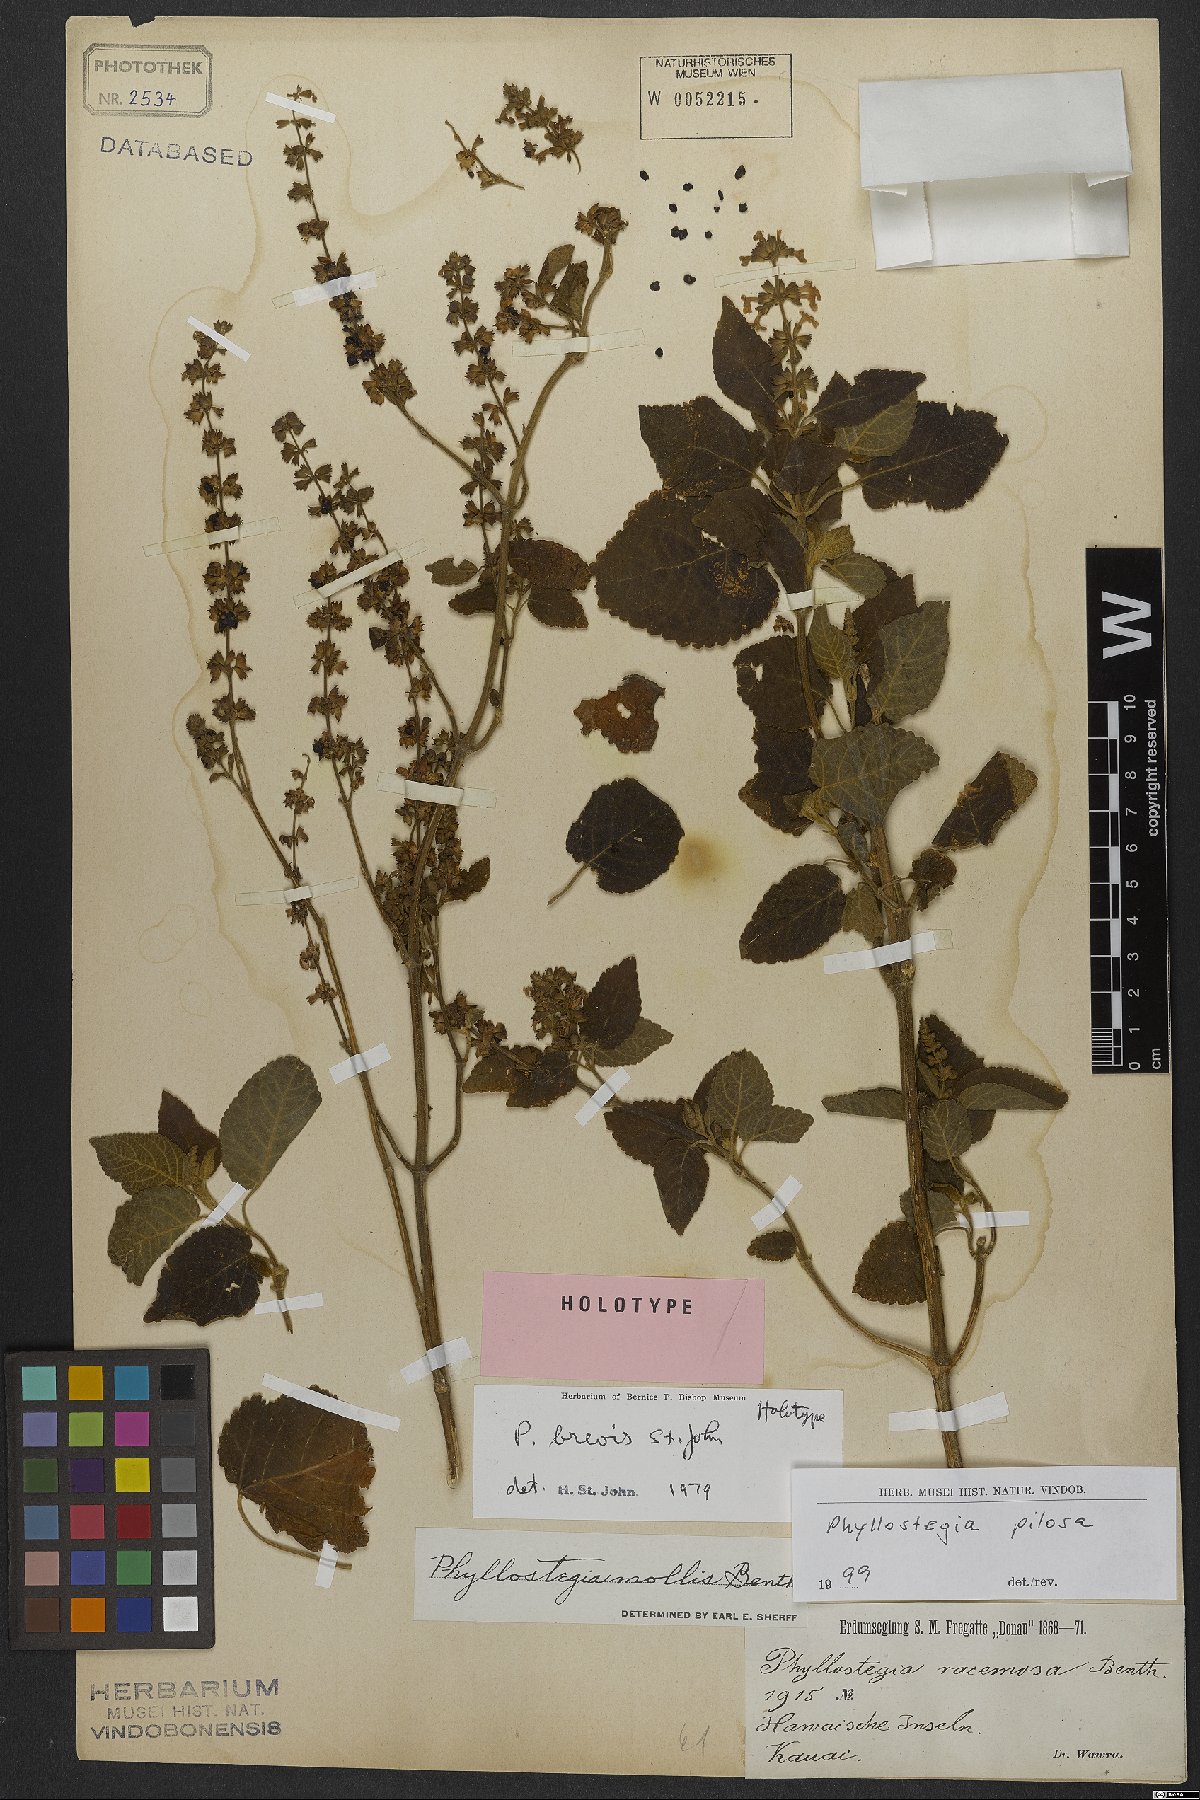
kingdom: Plantae
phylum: Tracheophyta
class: Magnoliopsida
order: Lamiales
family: Lamiaceae
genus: Phyllostegia
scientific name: Phyllostegia pilosa
